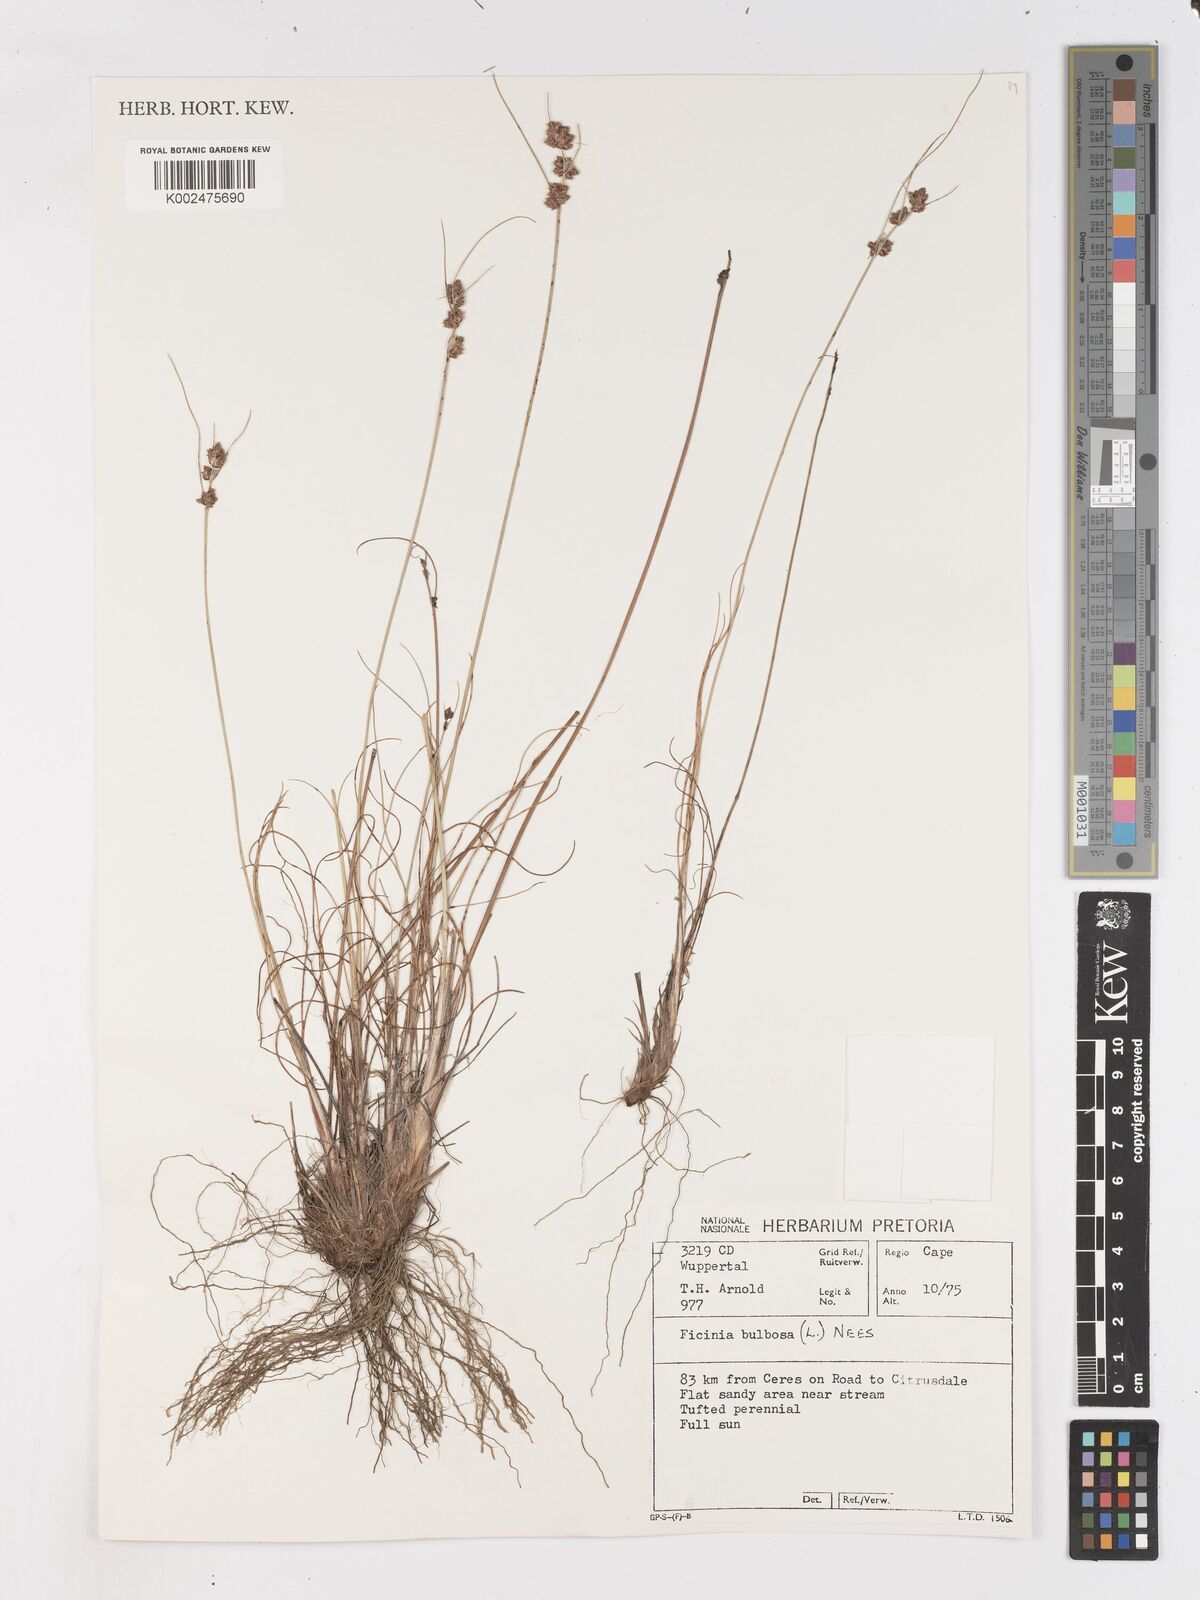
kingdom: Plantae
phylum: Tracheophyta
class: Liliopsida
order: Poales
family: Cyperaceae
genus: Ficinia
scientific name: Ficinia bulbosa
